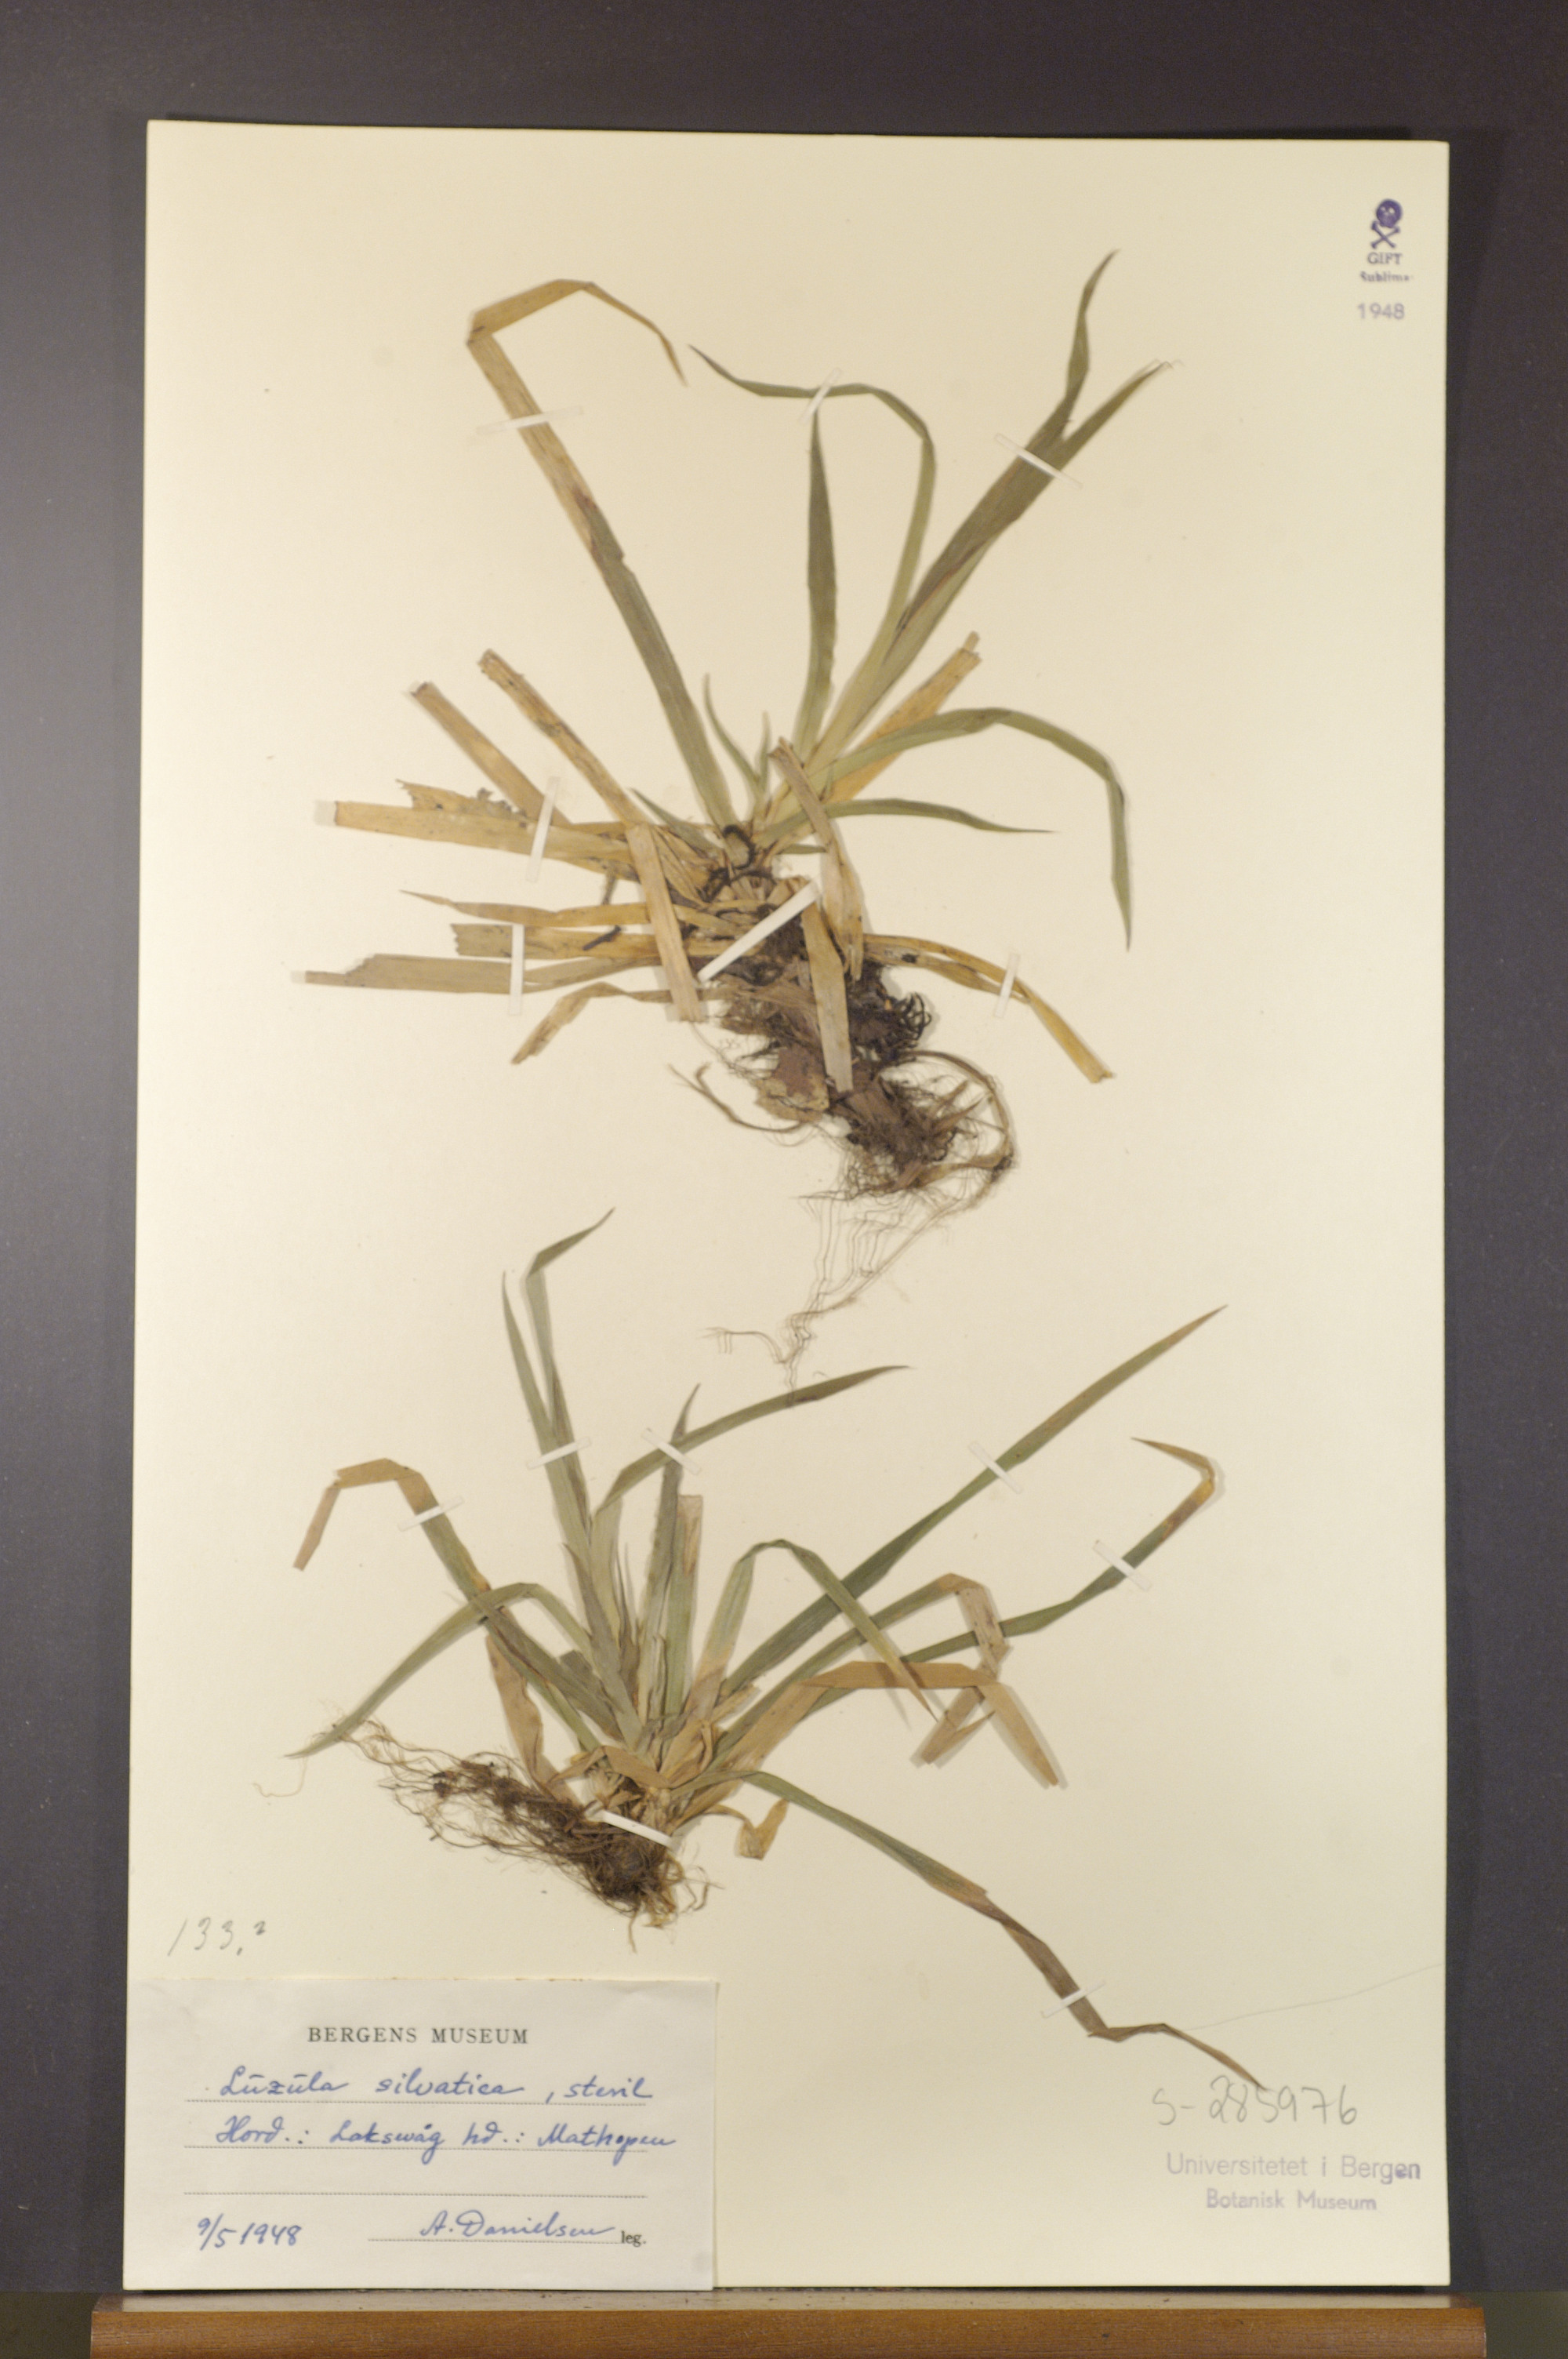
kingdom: Plantae
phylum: Tracheophyta
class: Liliopsida
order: Poales
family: Juncaceae
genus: Luzula
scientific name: Luzula sylvatica
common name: Great wood-rush
